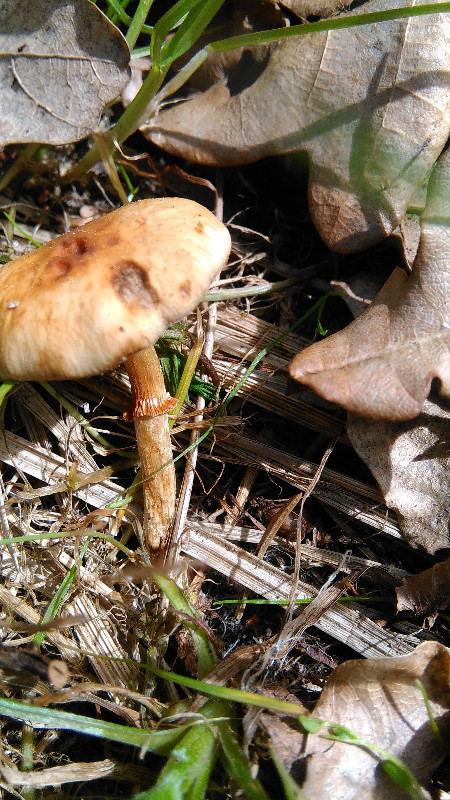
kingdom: Fungi
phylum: Basidiomycota
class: Agaricomycetes
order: Agaricales
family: Bolbitiaceae
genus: Conocybe
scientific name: Conocybe aporos
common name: tidlig dansehat
